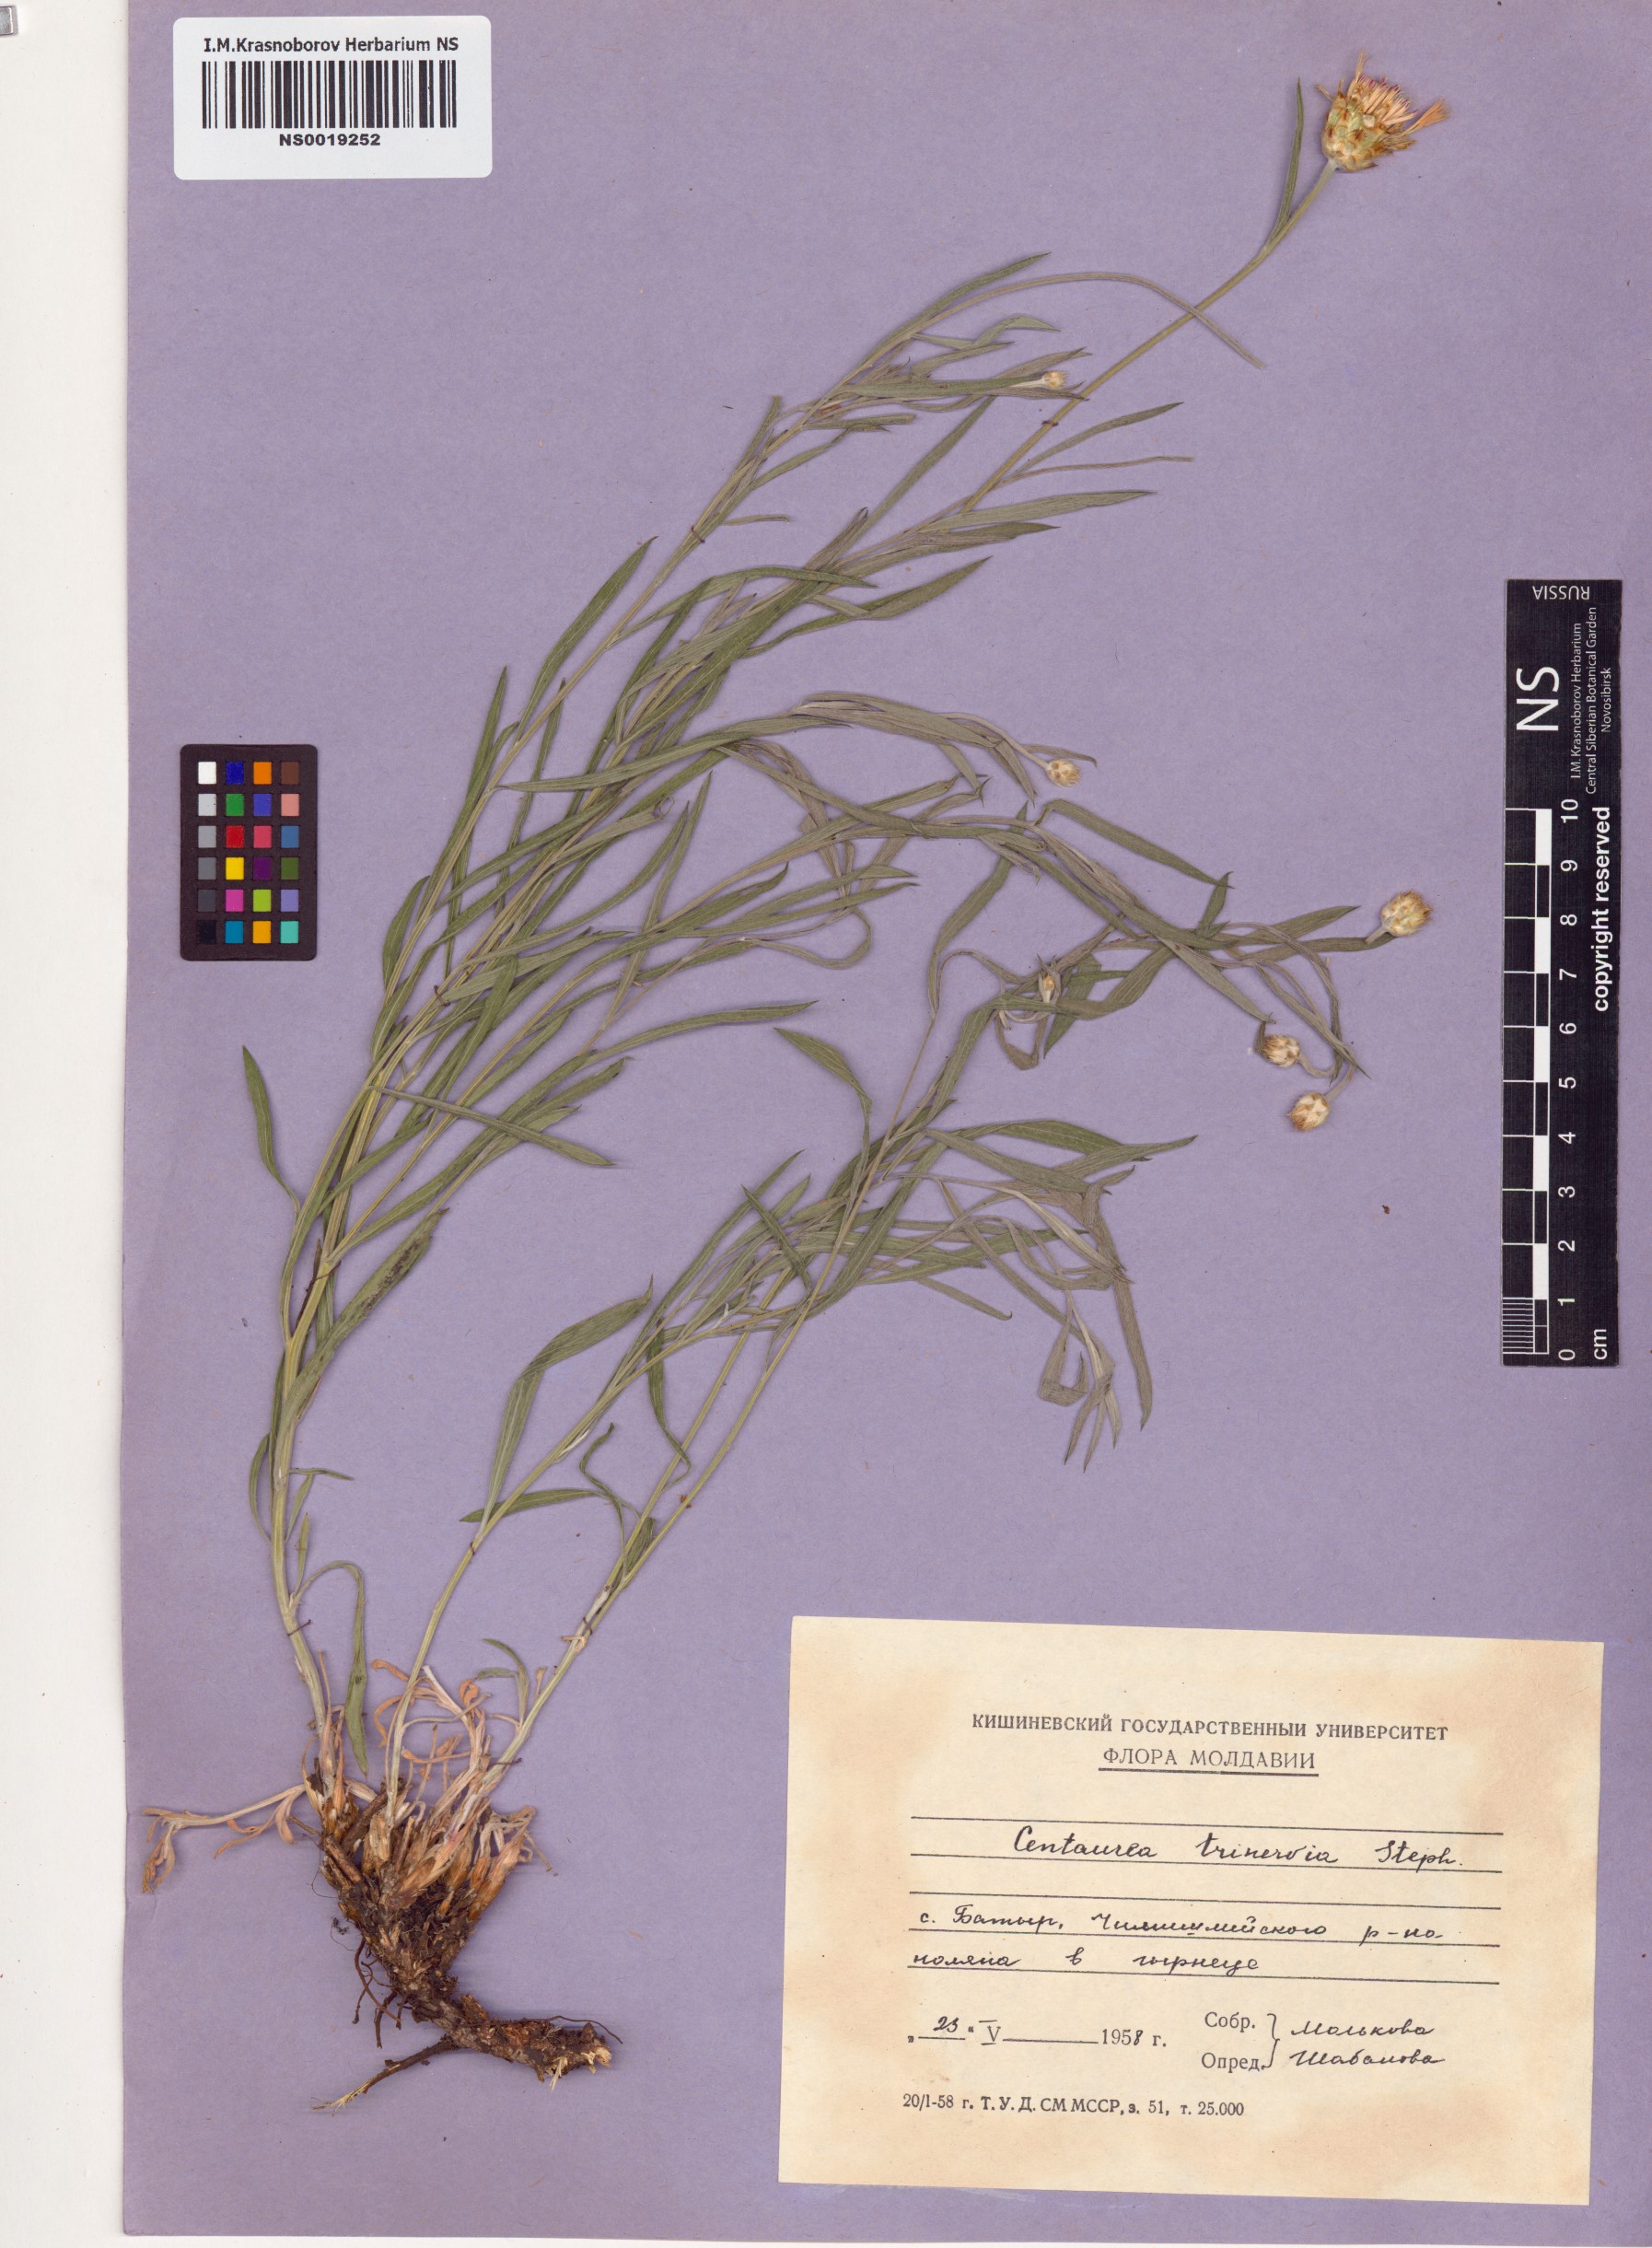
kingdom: Plantae
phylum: Tracheophyta
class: Magnoliopsida
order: Asterales
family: Asteraceae
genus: Psephellus
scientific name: Psephellus trinervius
